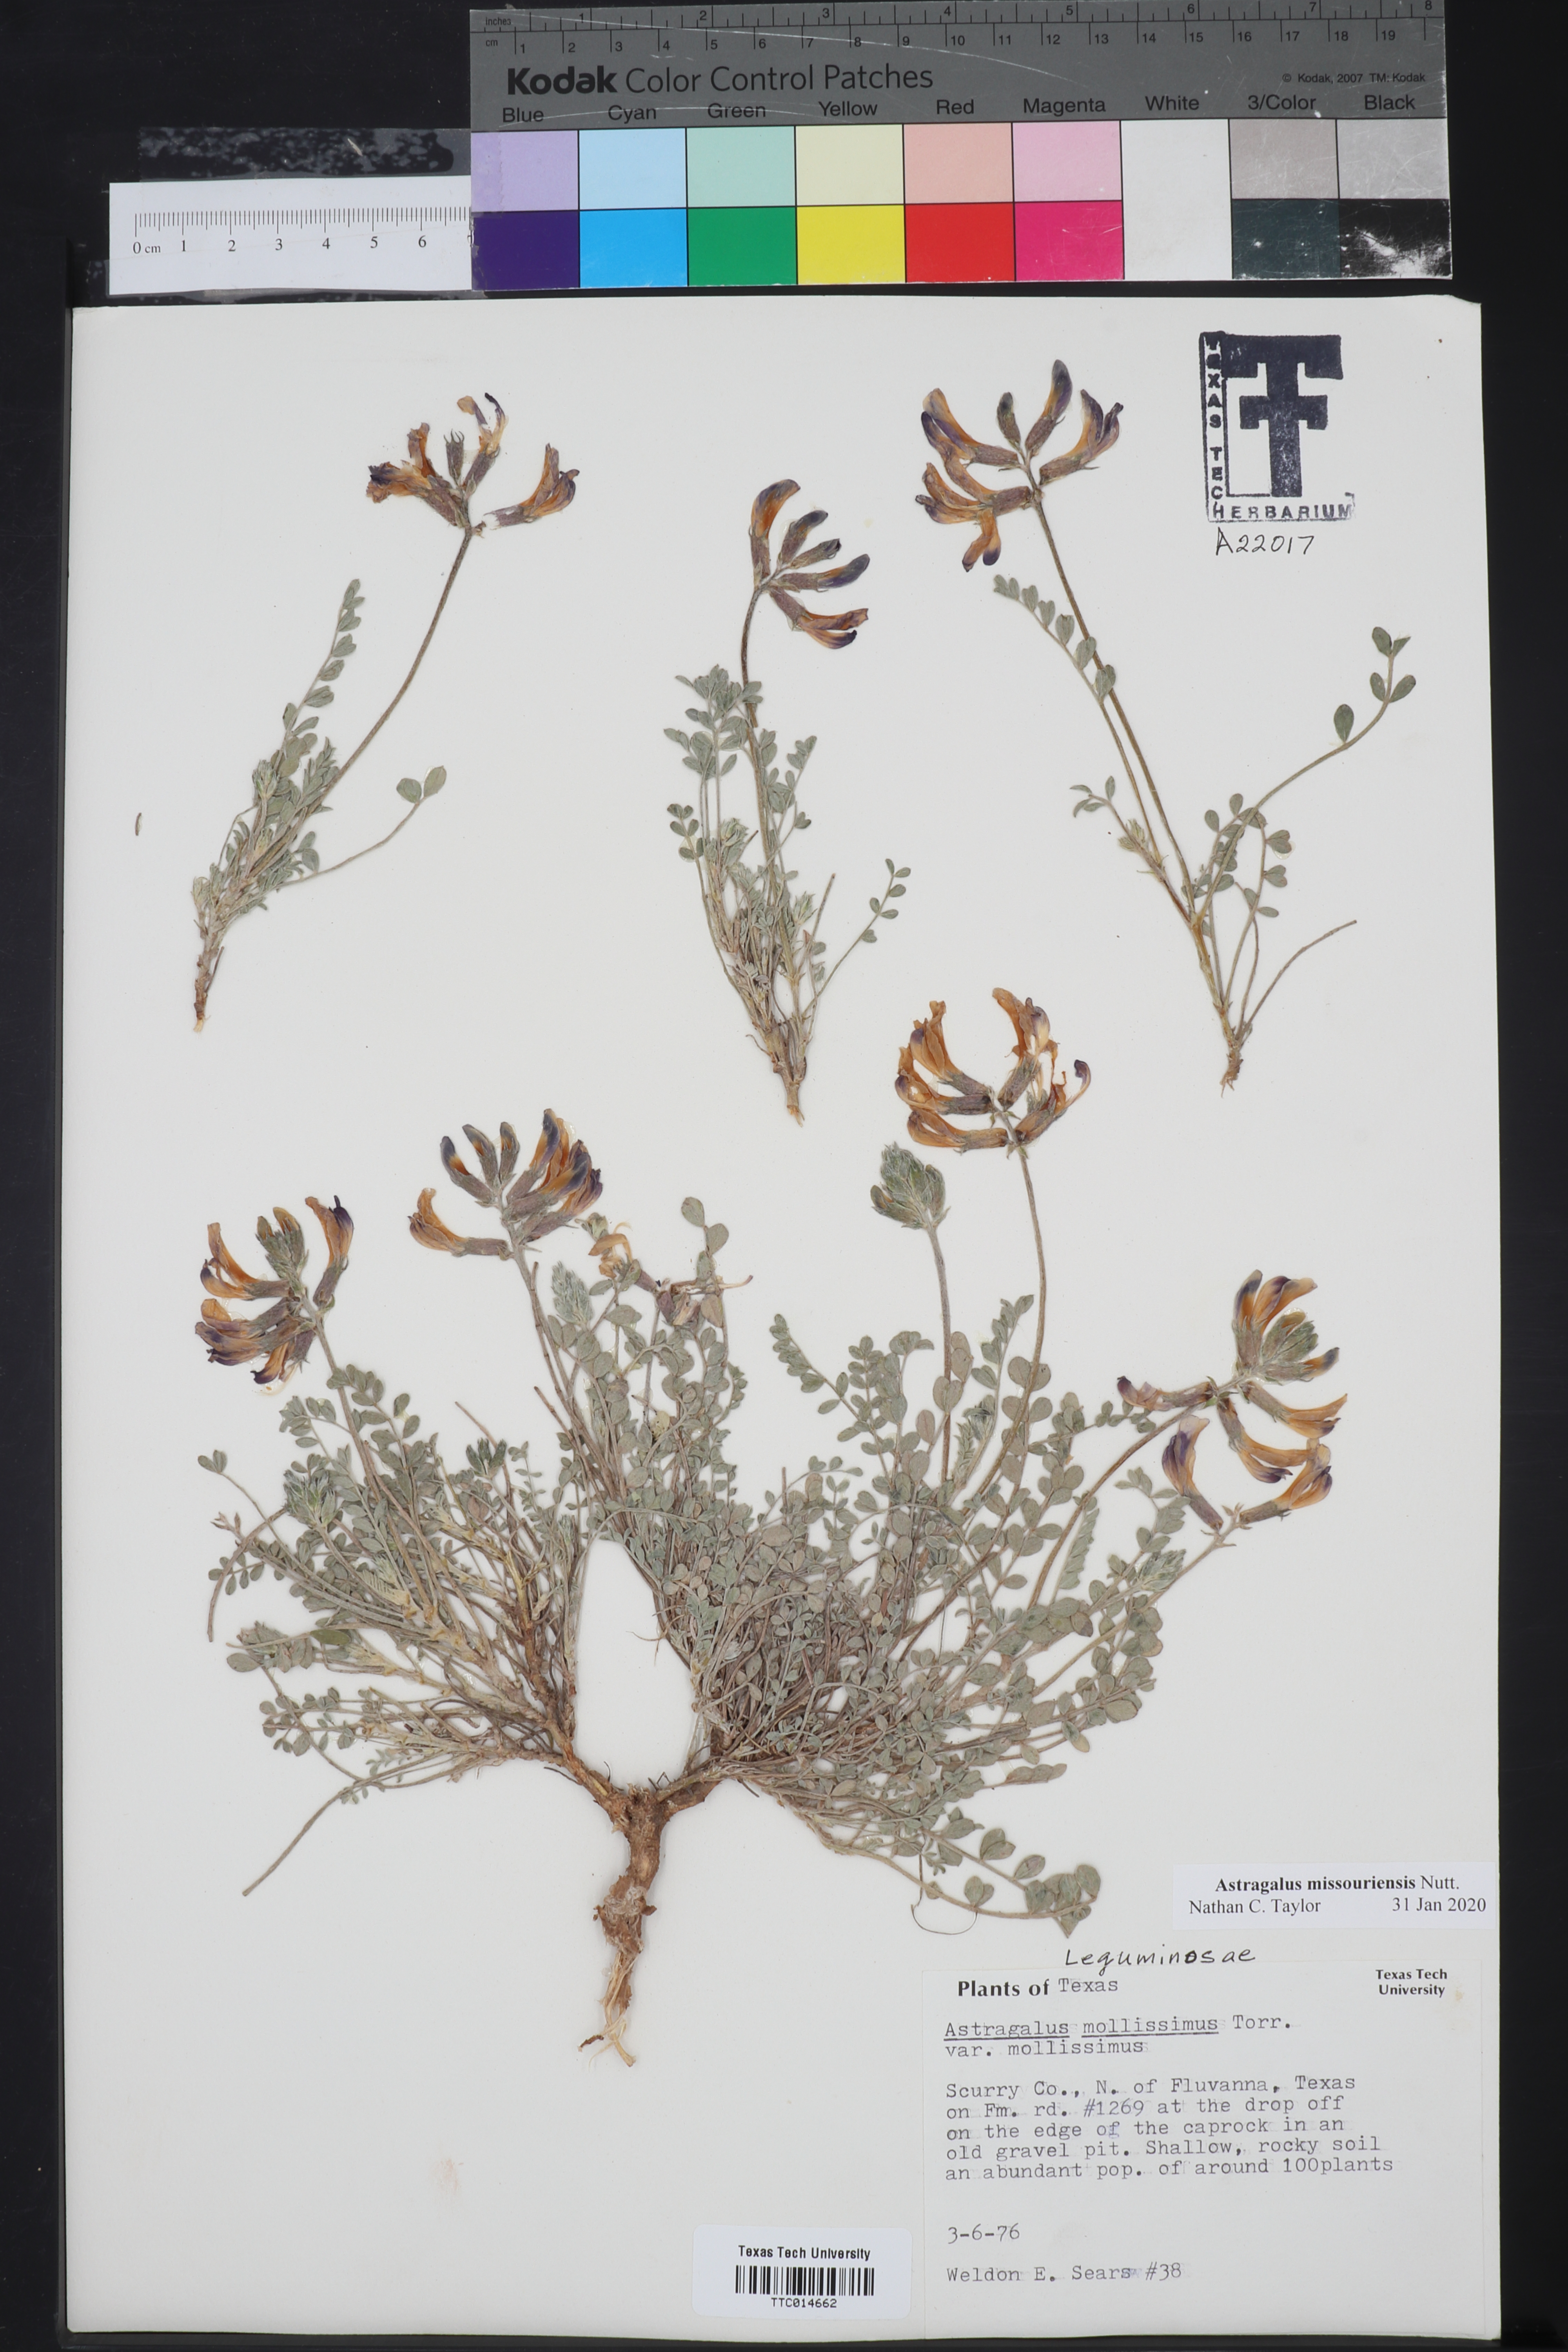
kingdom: Plantae
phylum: Tracheophyta
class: Magnoliopsida
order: Fabales
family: Fabaceae
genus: Astragalus
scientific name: Astragalus missouriensis
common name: Missouri milk-vetch
